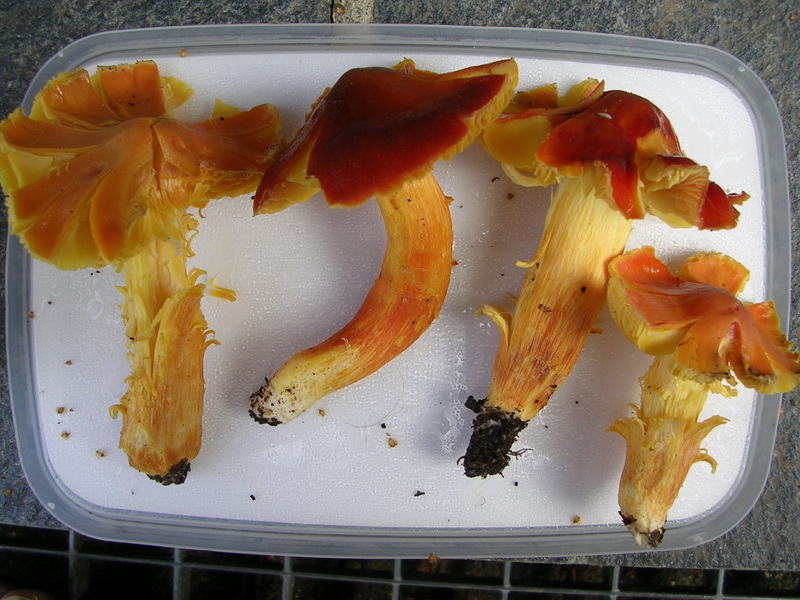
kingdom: Fungi
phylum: Basidiomycota
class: Agaricomycetes
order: Agaricales
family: Hygrophoraceae
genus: Hygrocybe
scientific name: Hygrocybe punicea
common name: skarlagen-vokshat
